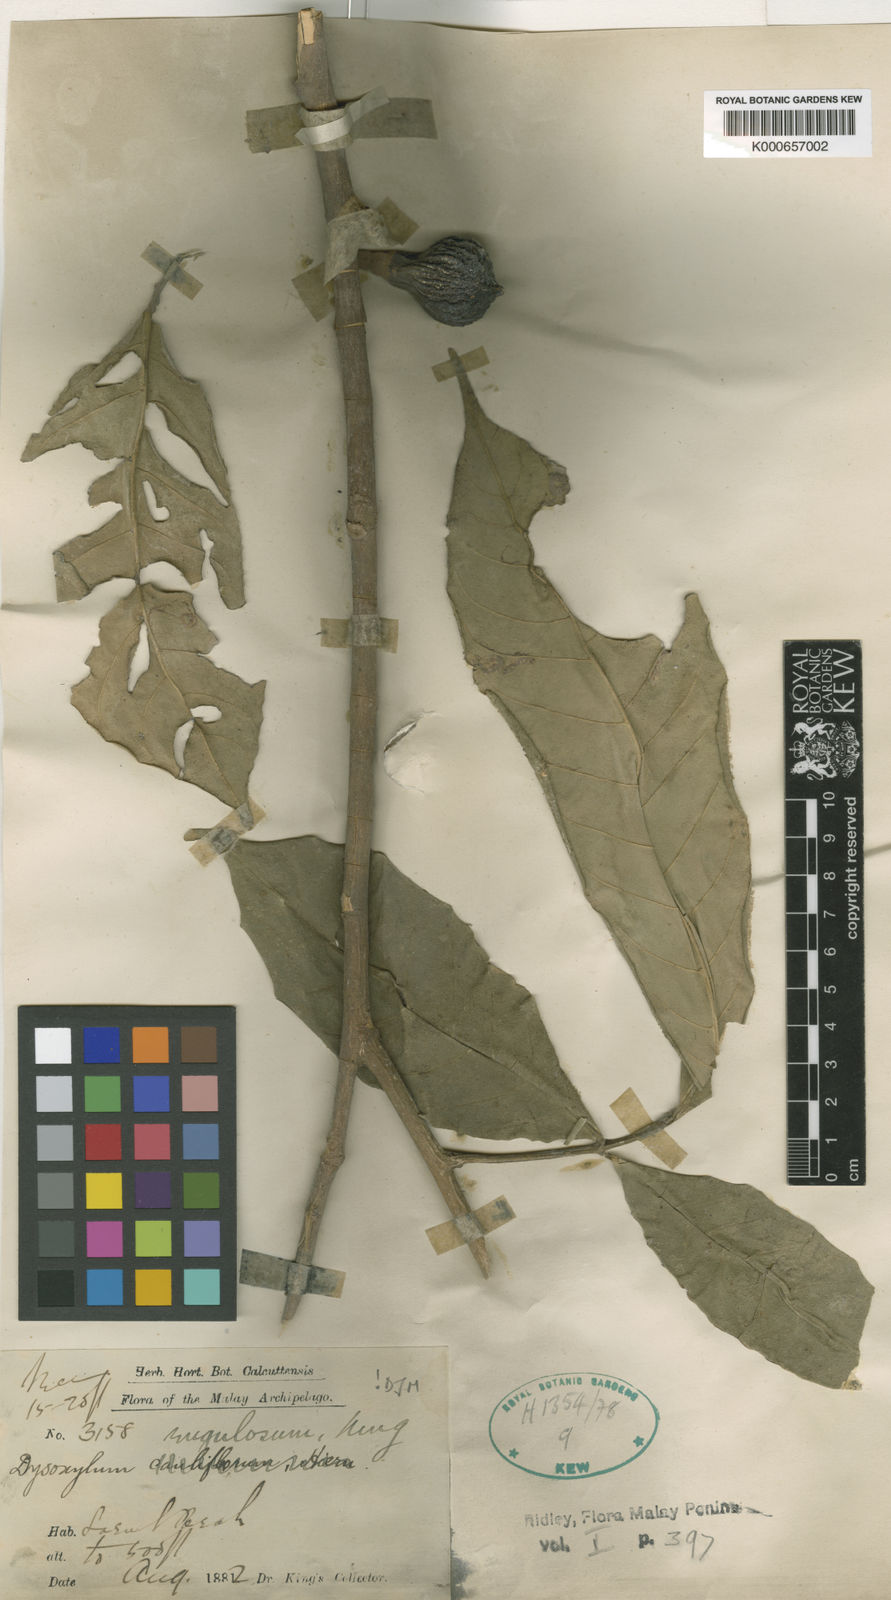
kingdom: Plantae
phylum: Tracheophyta
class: Magnoliopsida
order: Sapindales
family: Meliaceae
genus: Dysoxylum
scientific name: Dysoxylum rugulosum
